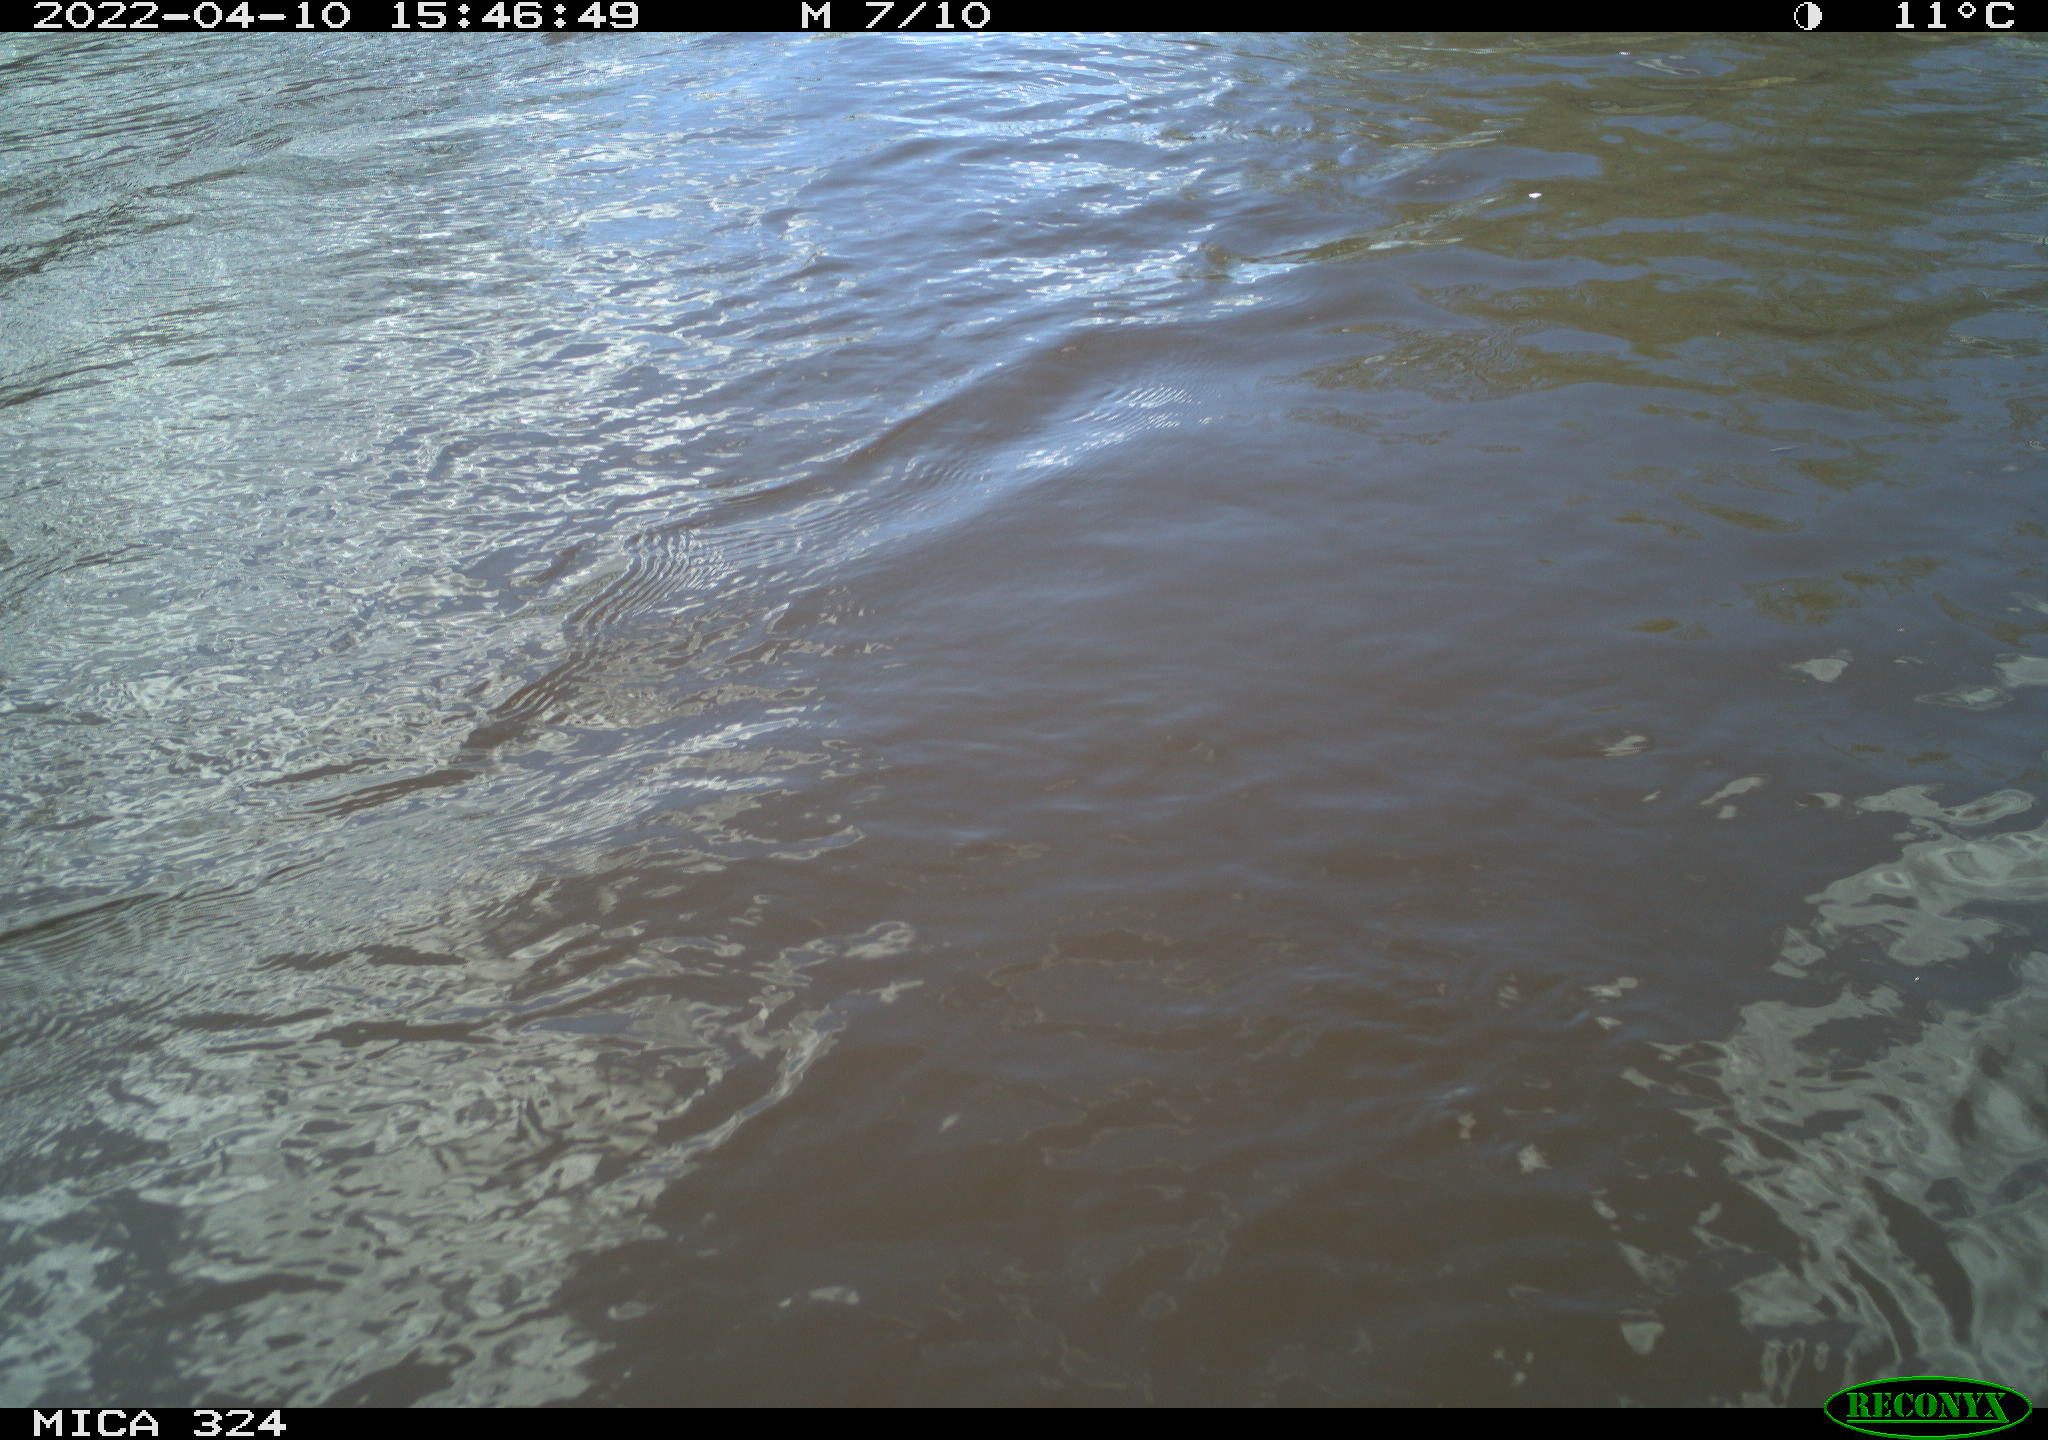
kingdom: Animalia
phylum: Chordata
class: Aves
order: Anseriformes
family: Anatidae
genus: Anas
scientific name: Anas platyrhynchos
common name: Mallard
